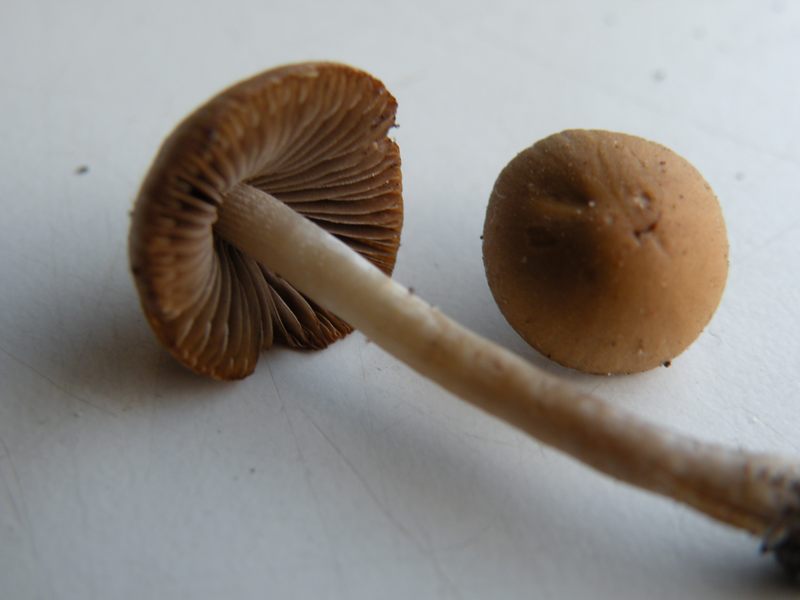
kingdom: Fungi
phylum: Basidiomycota
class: Agaricomycetes
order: Agaricales
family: Psathyrellaceae
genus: Psathyrella
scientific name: Psathyrella lutensis
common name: hjulspor-mørkhat
